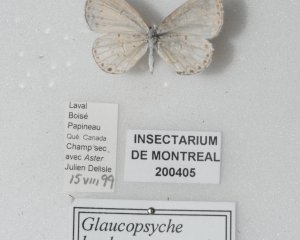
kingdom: Animalia
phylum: Arthropoda
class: Insecta
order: Lepidoptera
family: Lycaenidae
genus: Cyaniris
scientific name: Cyaniris neglecta
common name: Summer Azure
